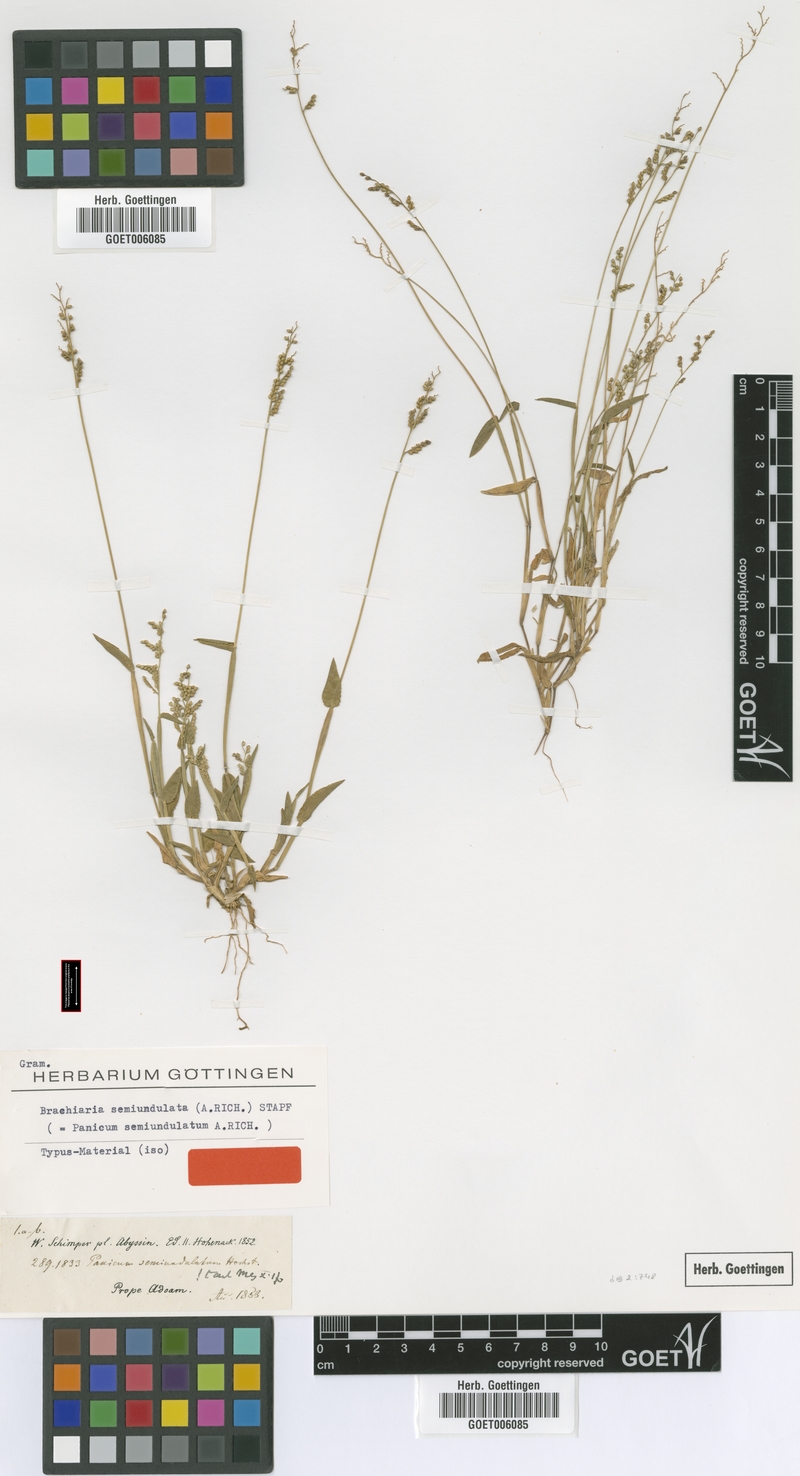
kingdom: Plantae
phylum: Tracheophyta
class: Liliopsida
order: Poales
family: Poaceae
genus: Urochloa
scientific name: Urochloa semiundulata
